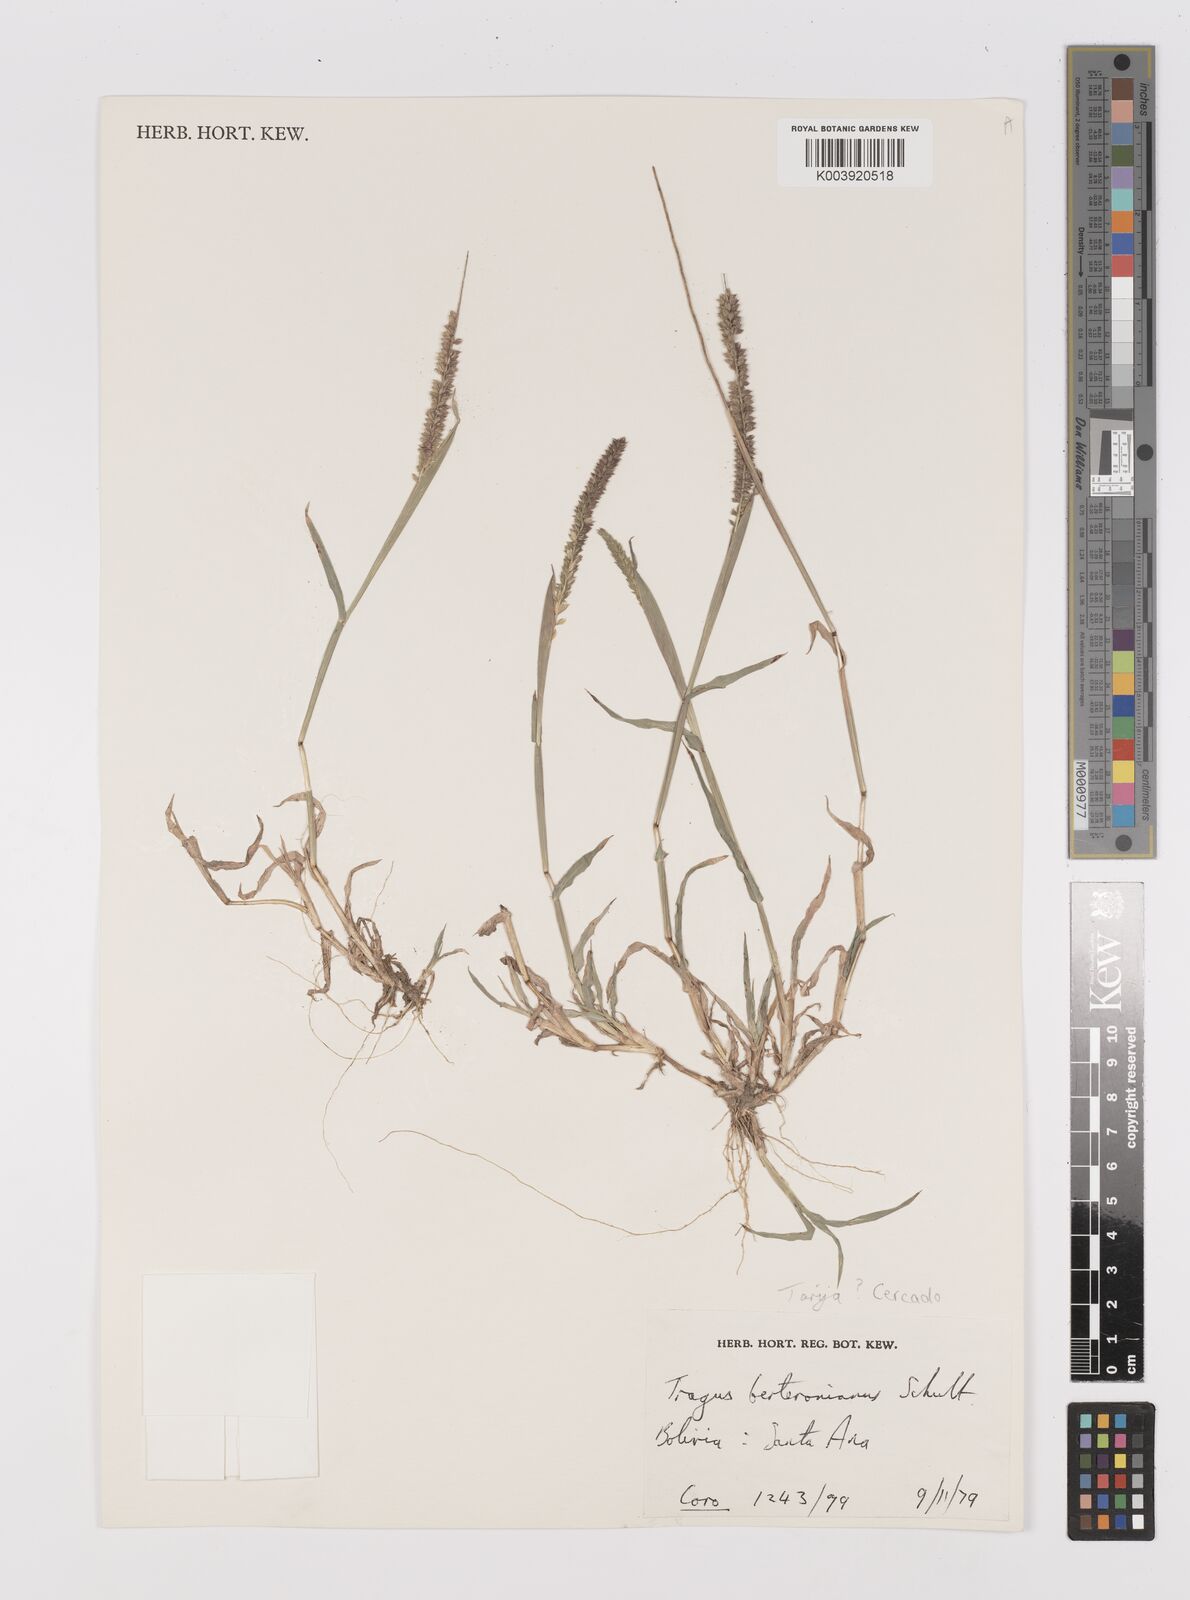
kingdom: Plantae
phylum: Tracheophyta
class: Liliopsida
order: Poales
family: Poaceae
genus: Tragus
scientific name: Tragus berteronianus
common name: African bur-grass
